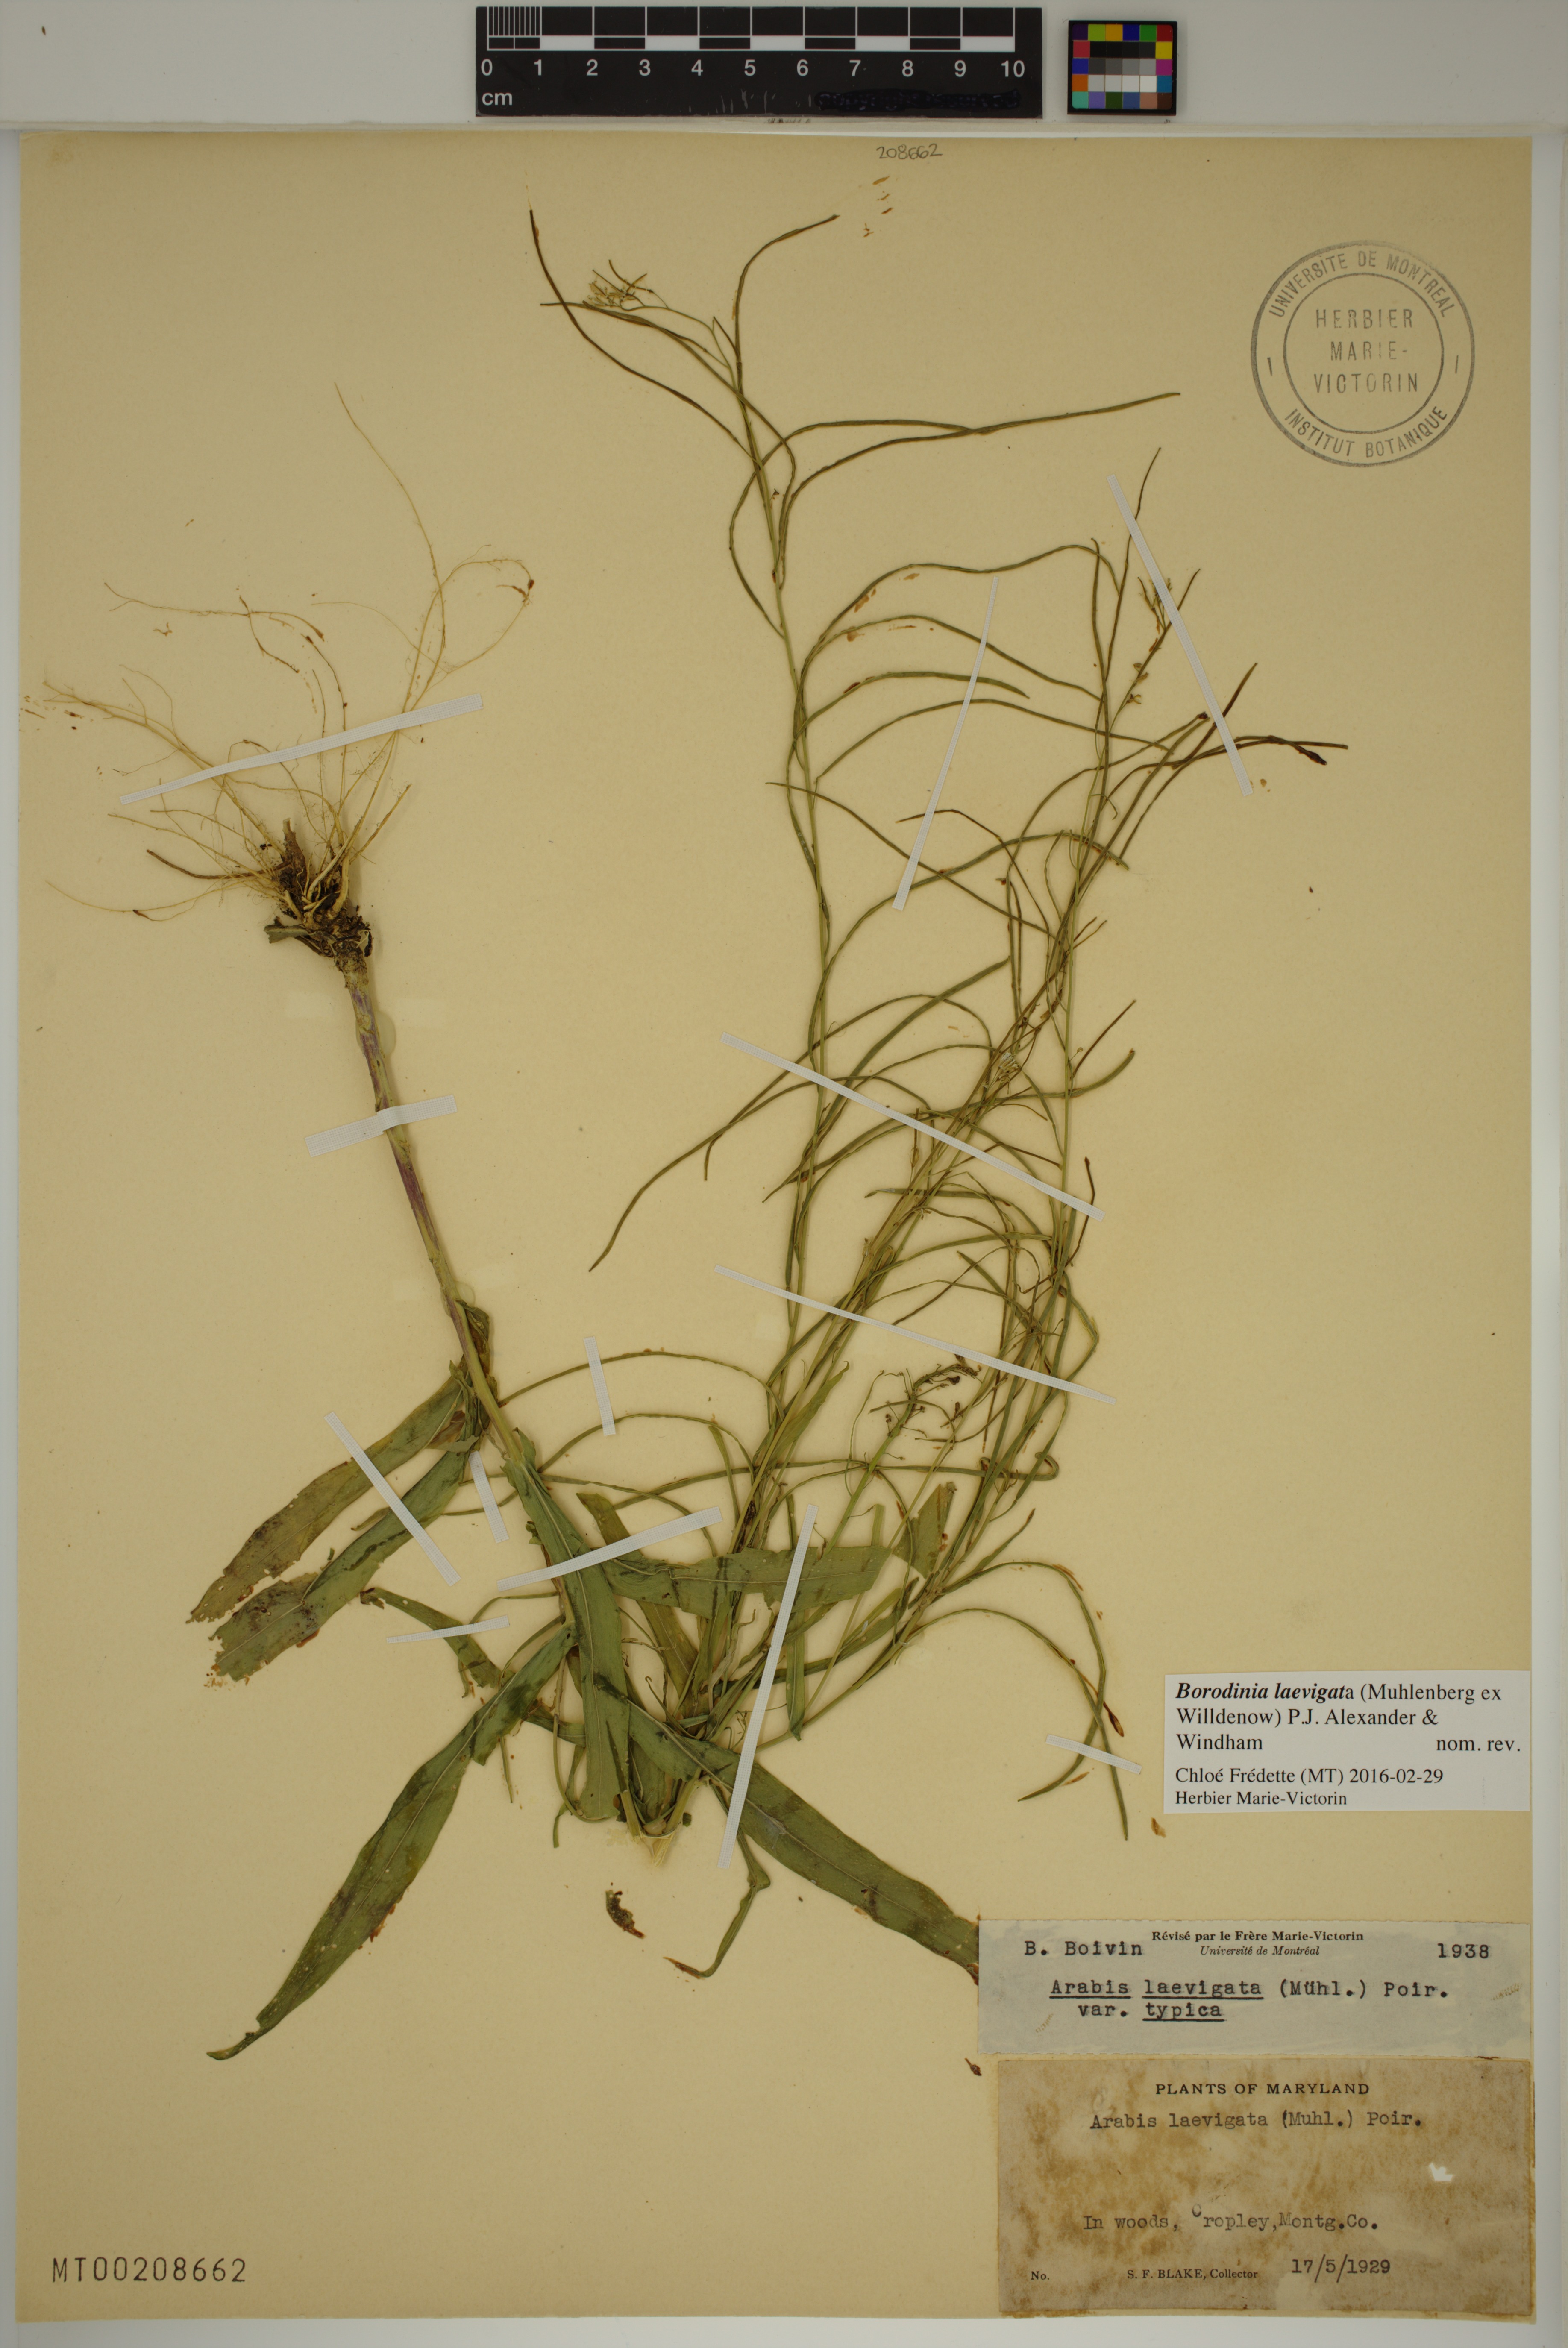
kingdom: Plantae
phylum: Tracheophyta
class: Magnoliopsida
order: Brassicales
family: Brassicaceae
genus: Borodinia
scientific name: Borodinia laevigata
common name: Smooth rockcress
